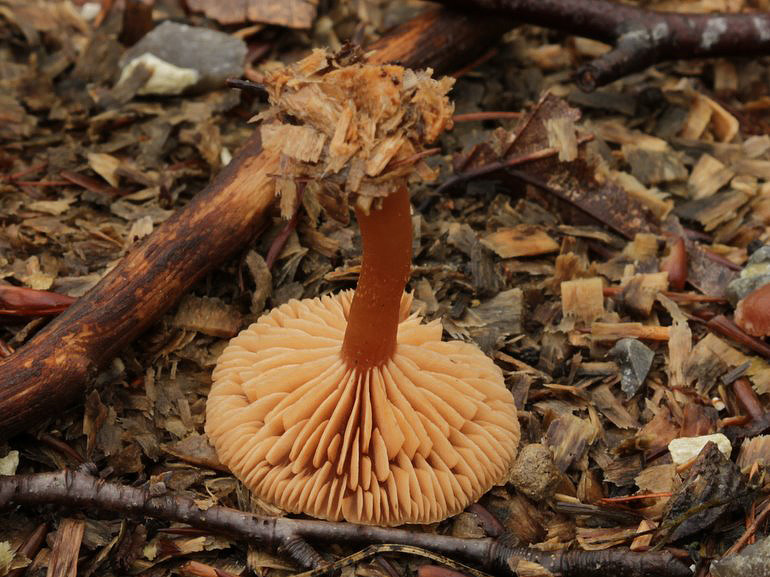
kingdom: Fungi
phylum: Basidiomycota
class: Agaricomycetes
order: Agaricales
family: Tubariaceae
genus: Tubaria
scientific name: Tubaria furfuracea
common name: kliddet fnughat
